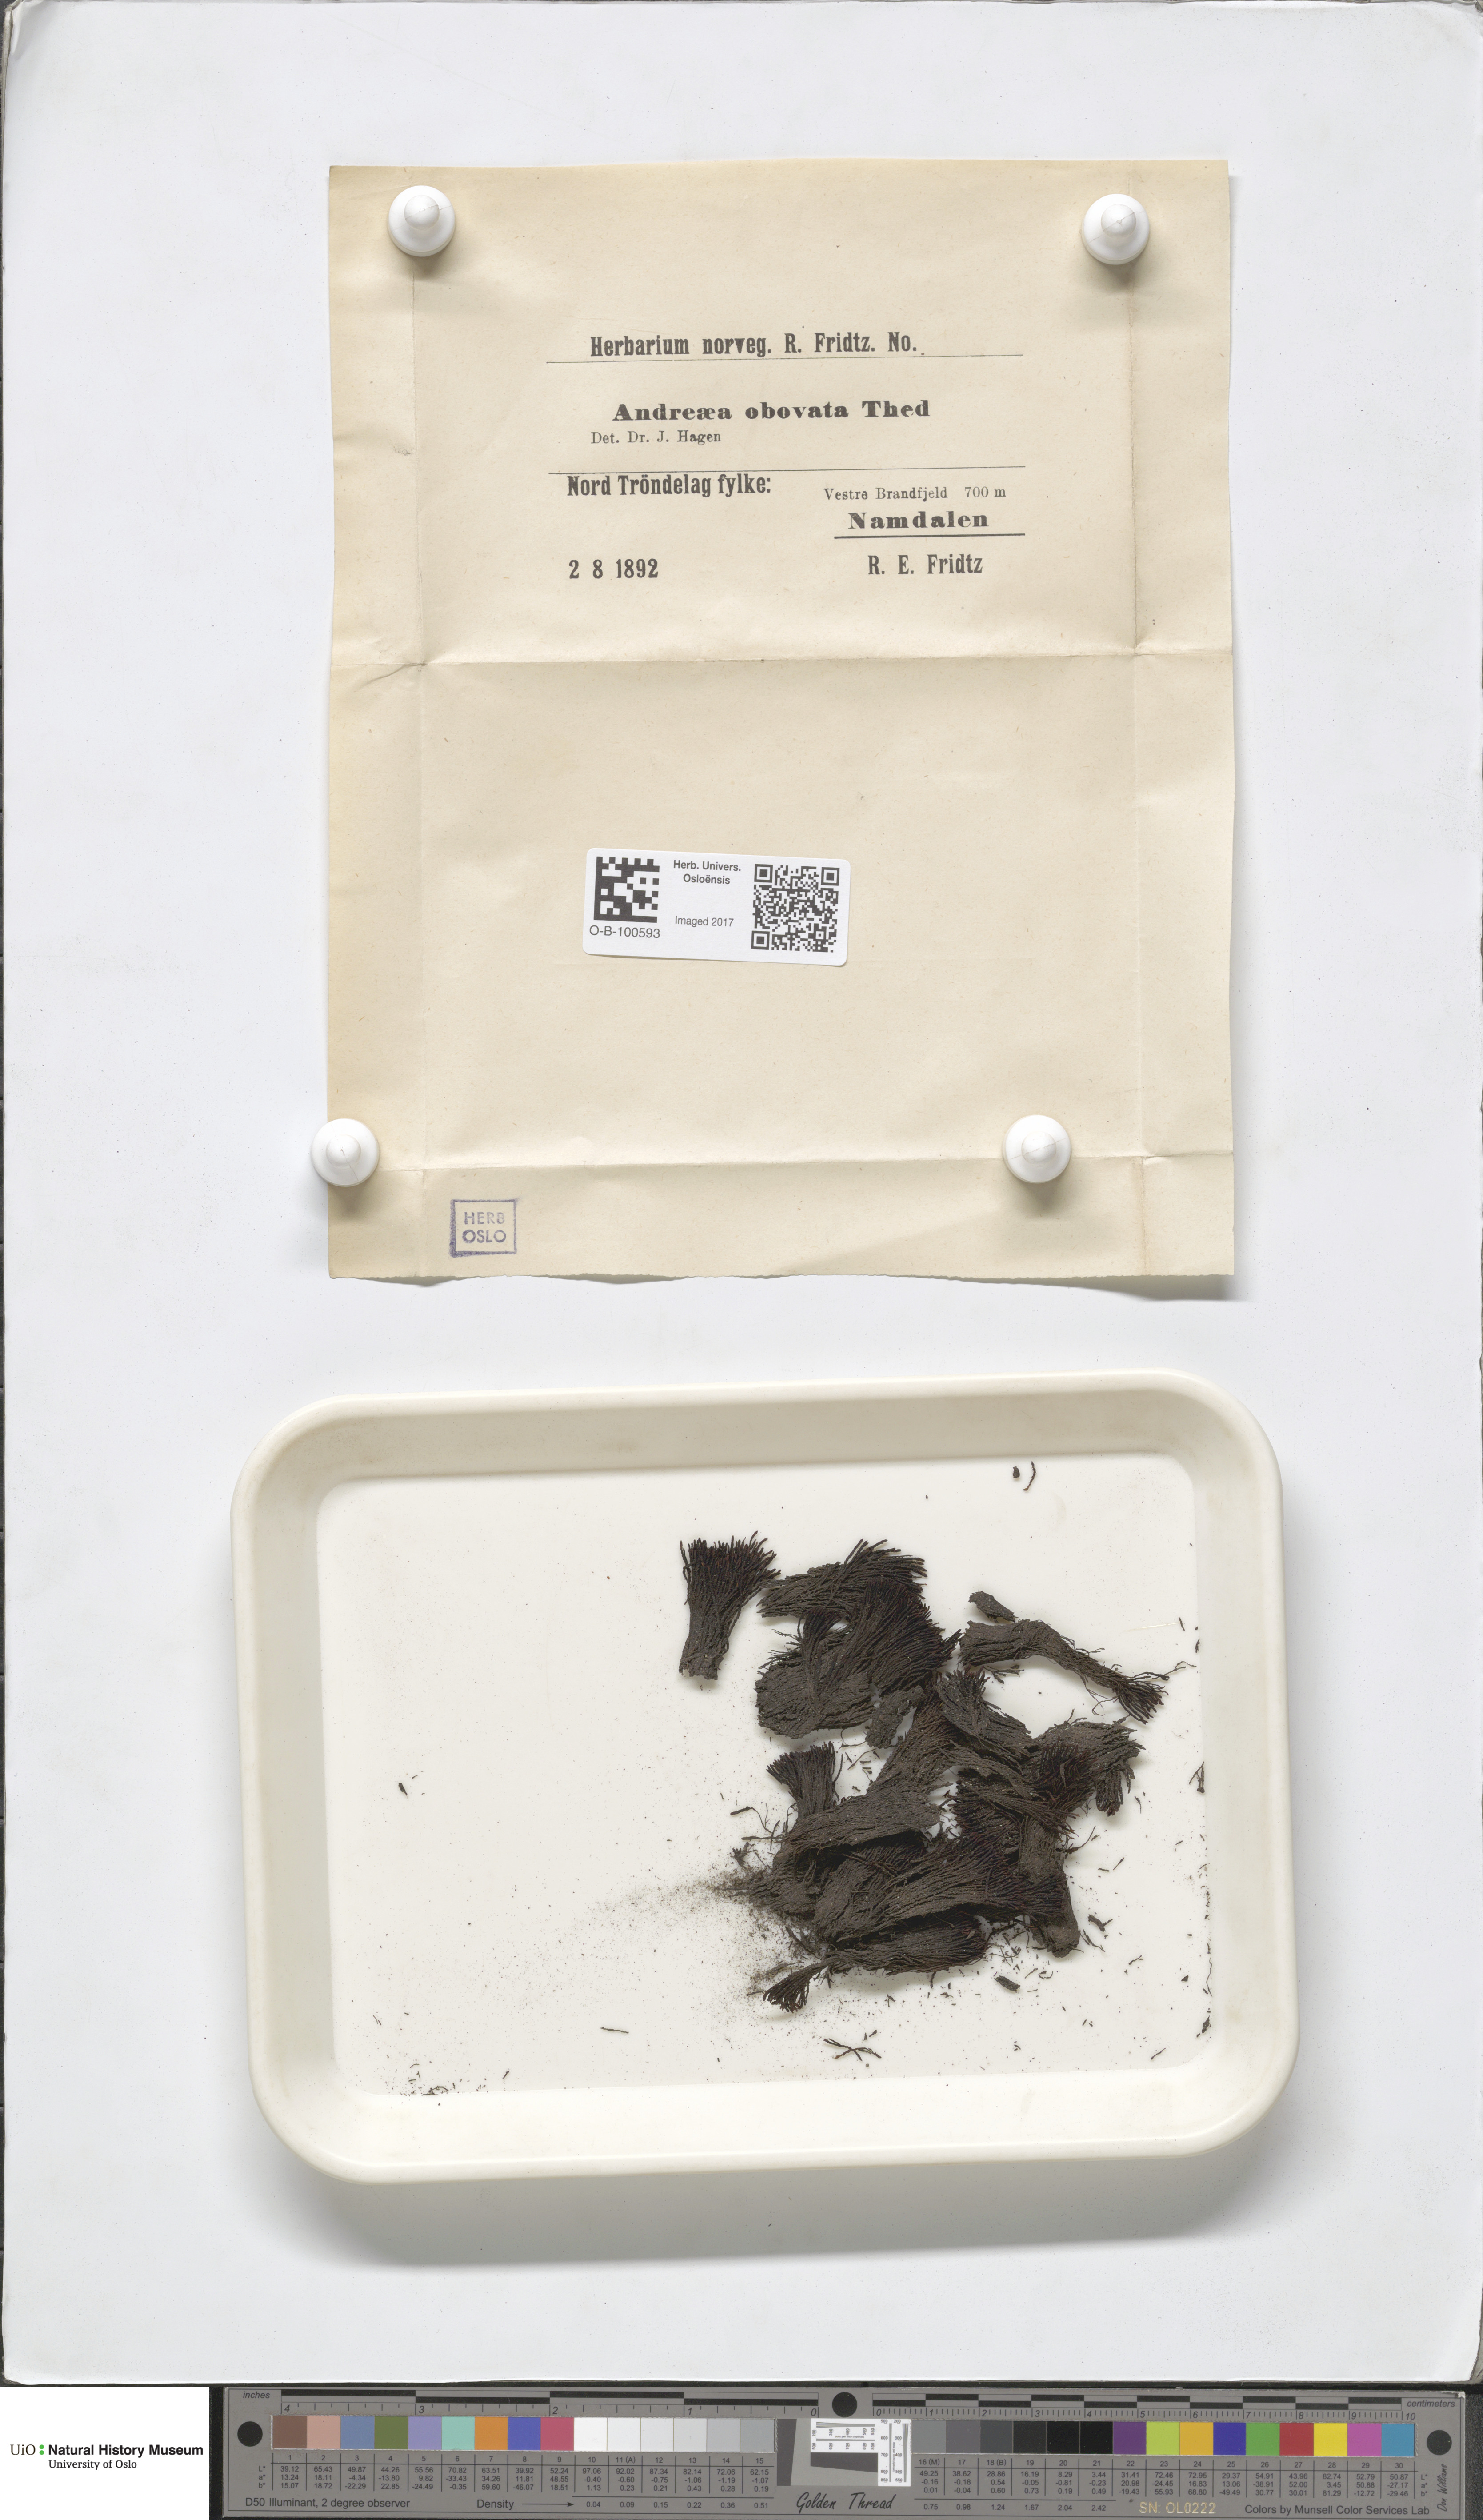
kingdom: Plantae
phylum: Bryophyta
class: Andreaeopsida
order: Andreaeales
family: Andreaeaceae
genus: Andreaea
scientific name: Andreaea alpina
